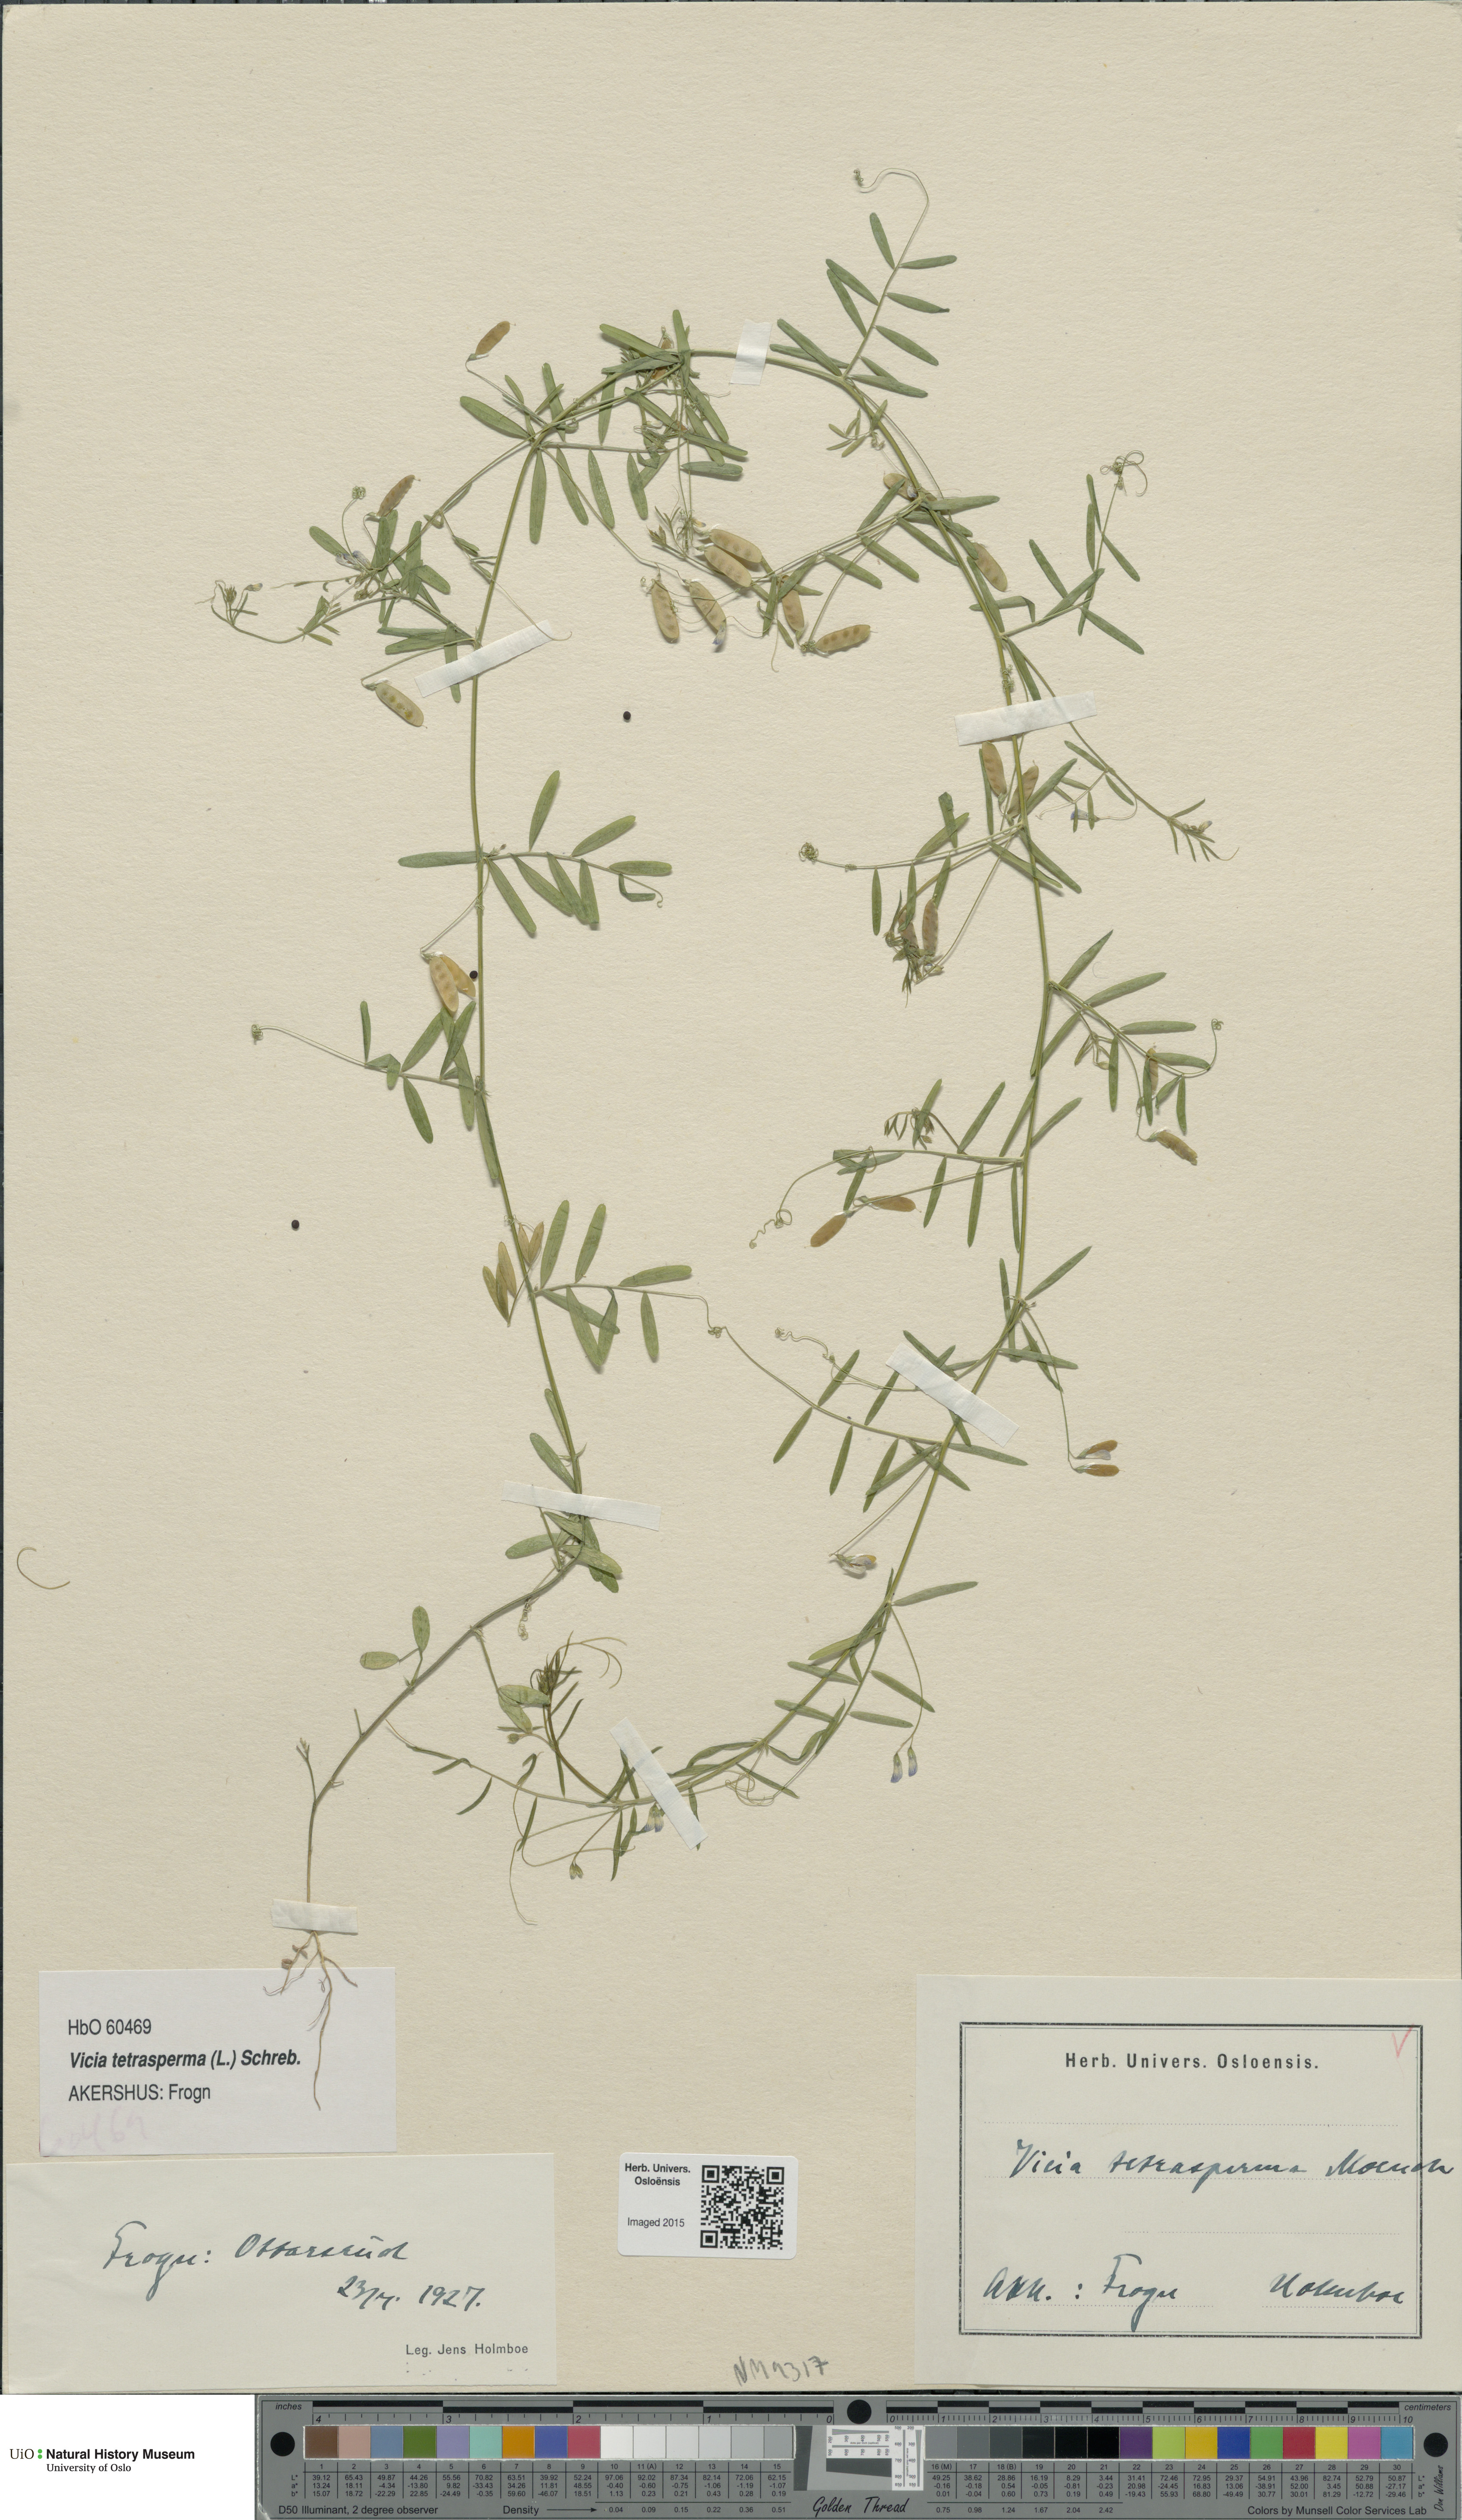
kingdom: Plantae
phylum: Tracheophyta
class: Magnoliopsida
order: Fabales
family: Fabaceae
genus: Vicia
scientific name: Vicia tetrasperma
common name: Smooth tare
